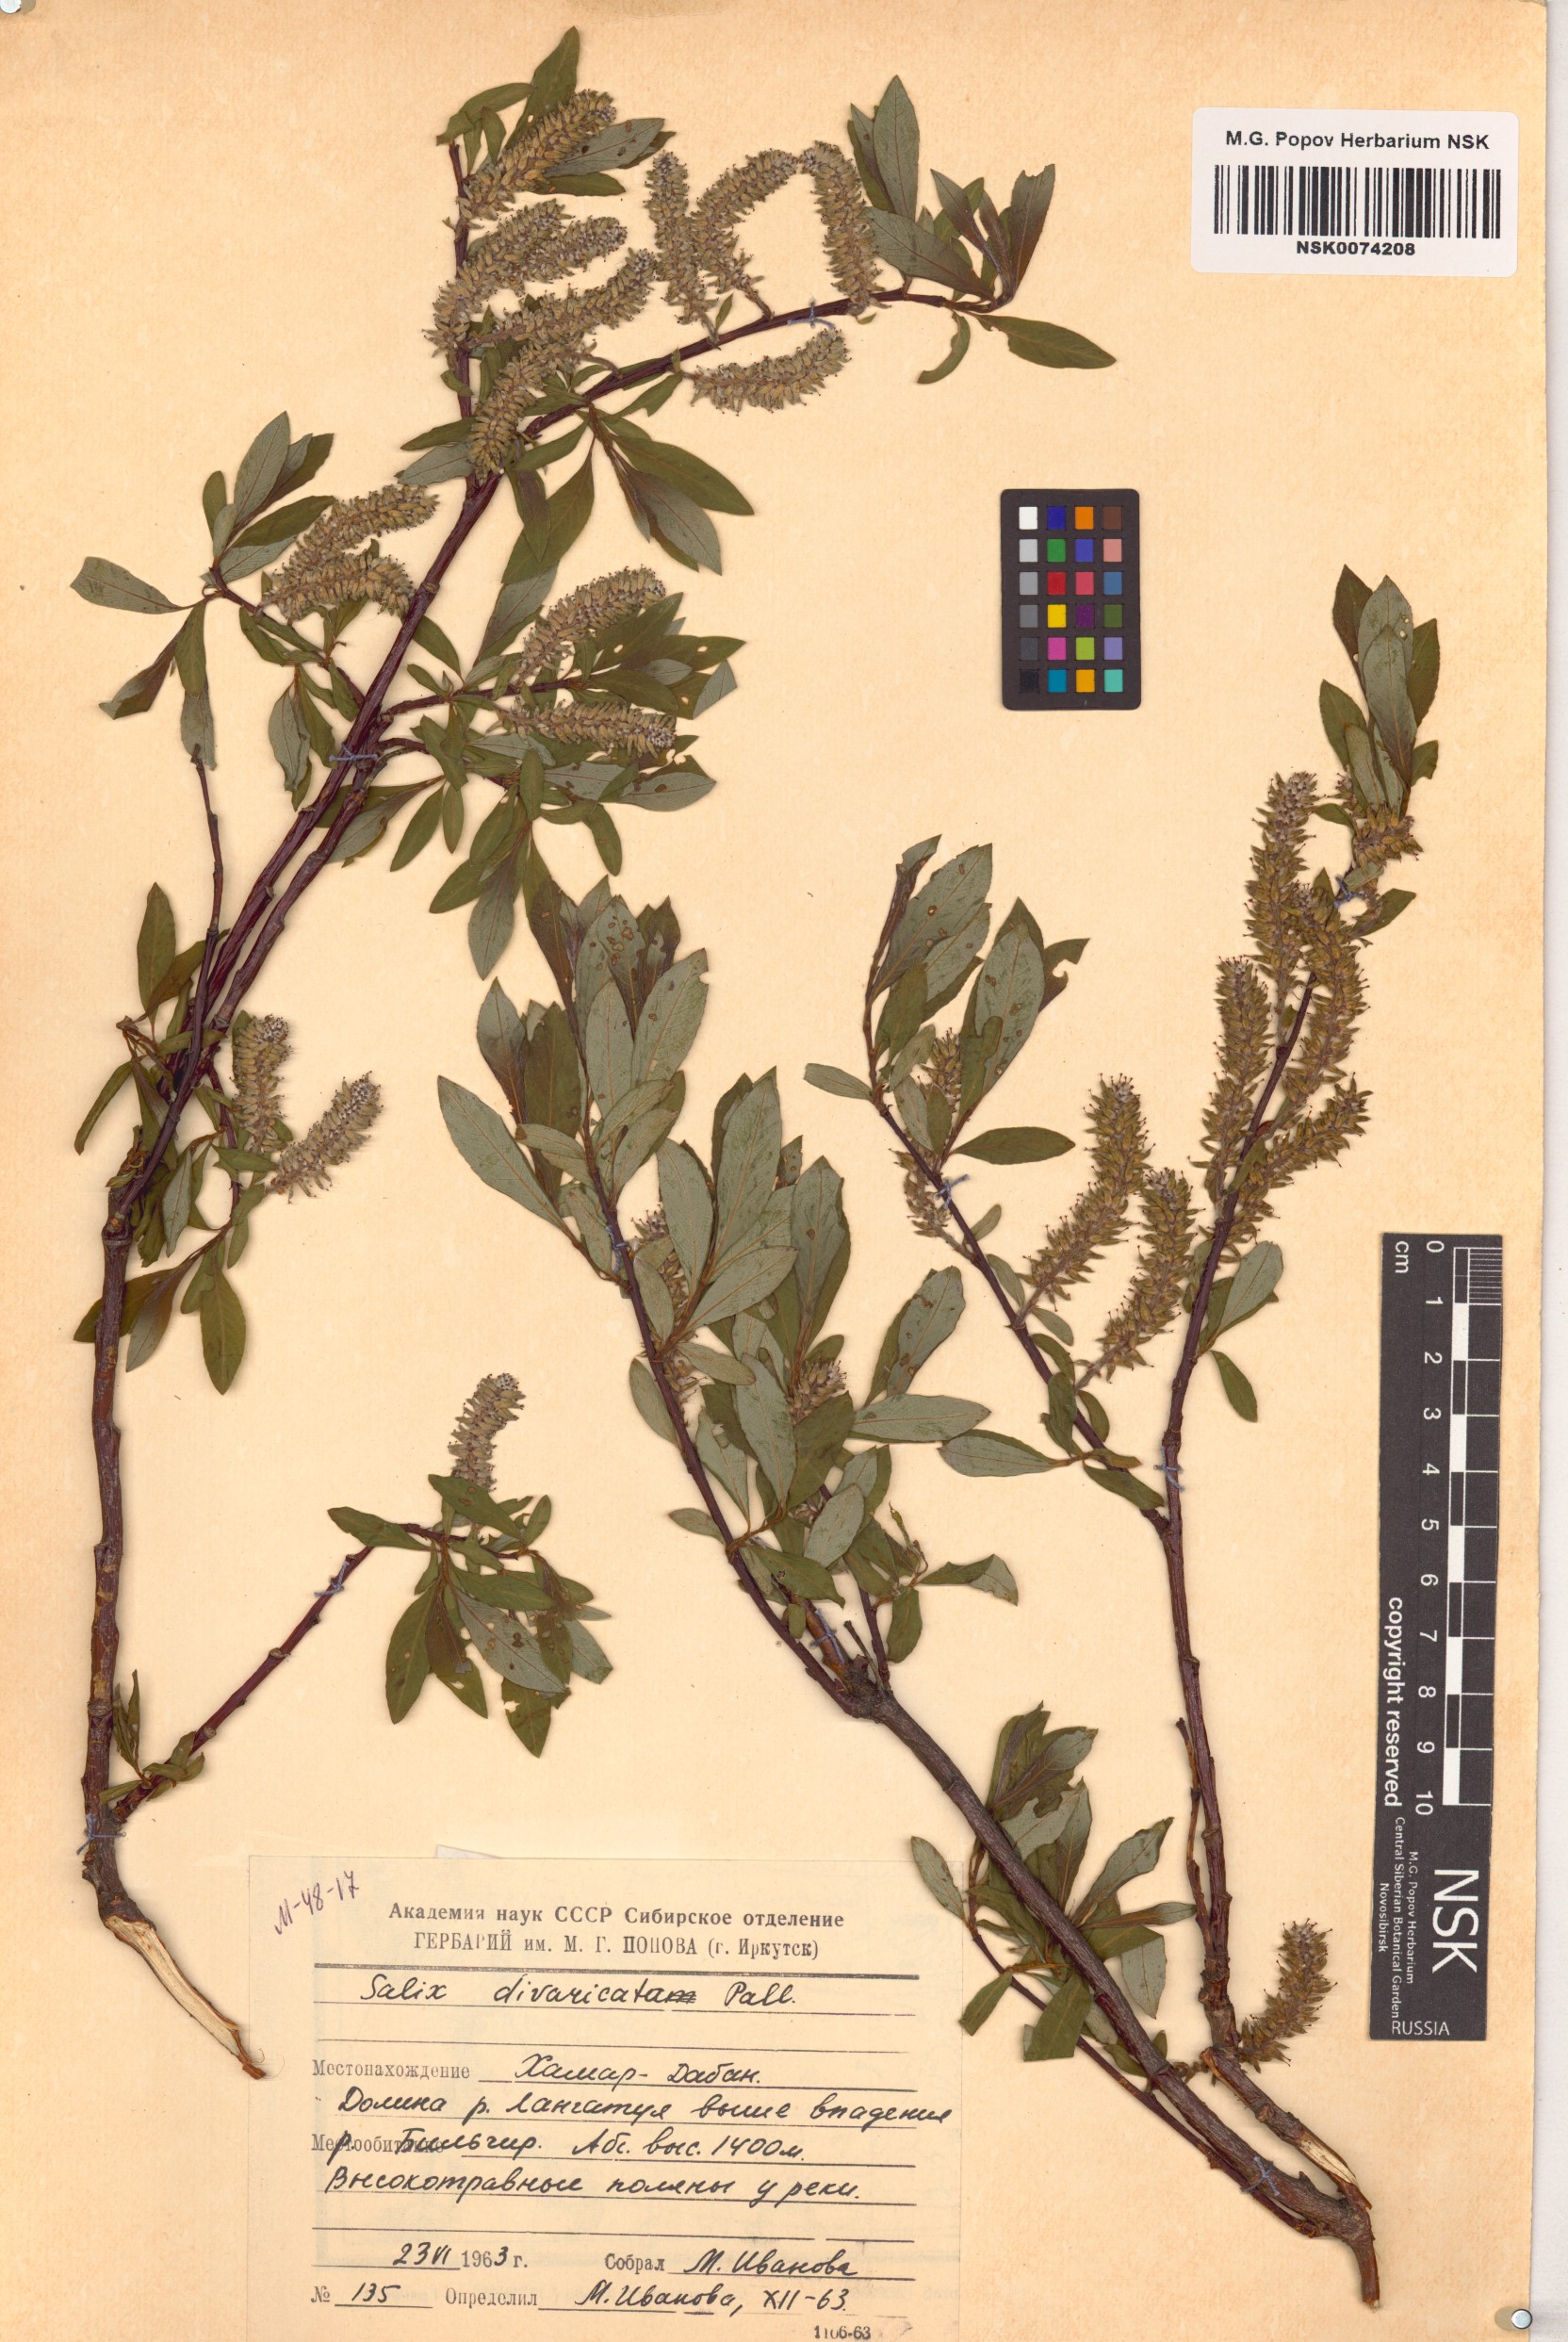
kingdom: Plantae
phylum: Tracheophyta
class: Magnoliopsida
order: Malpighiales
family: Salicaceae
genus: Salix
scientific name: Salix divaricata
